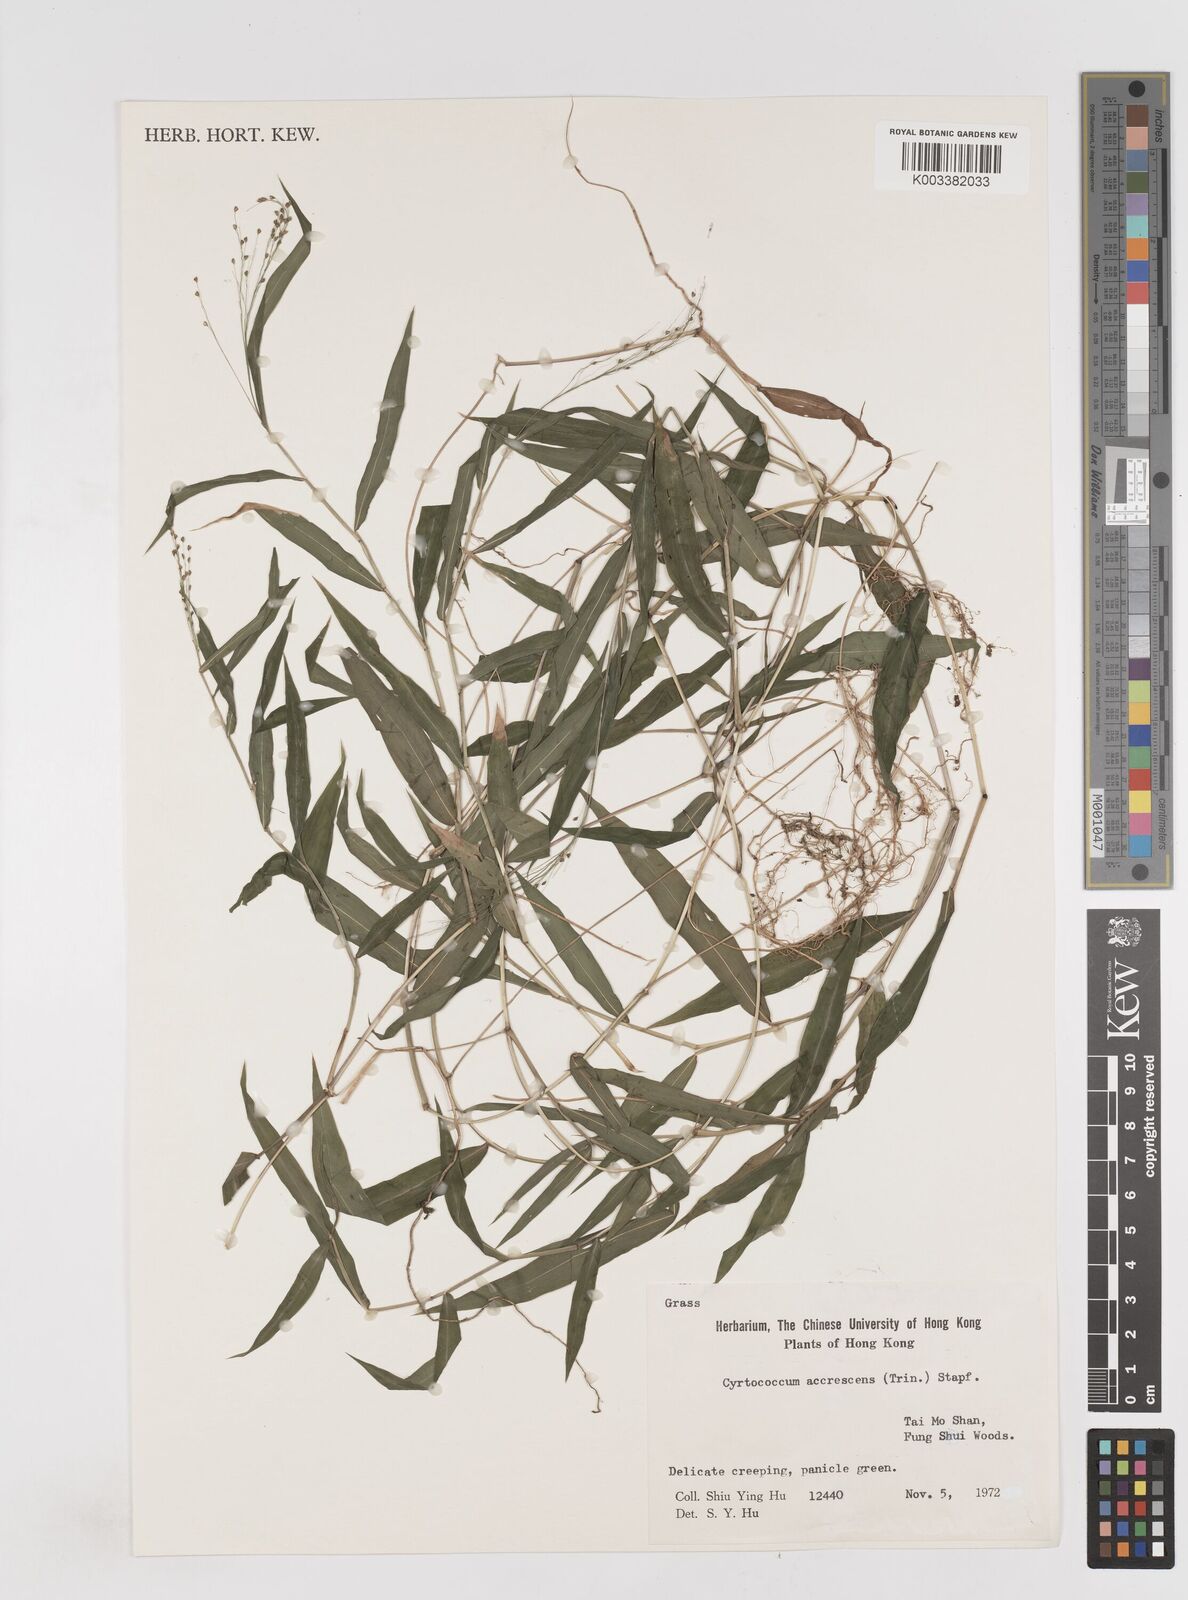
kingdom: Plantae
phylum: Tracheophyta
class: Liliopsida
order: Poales
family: Poaceae
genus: Cyrtococcum
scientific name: Cyrtococcum accrescens
